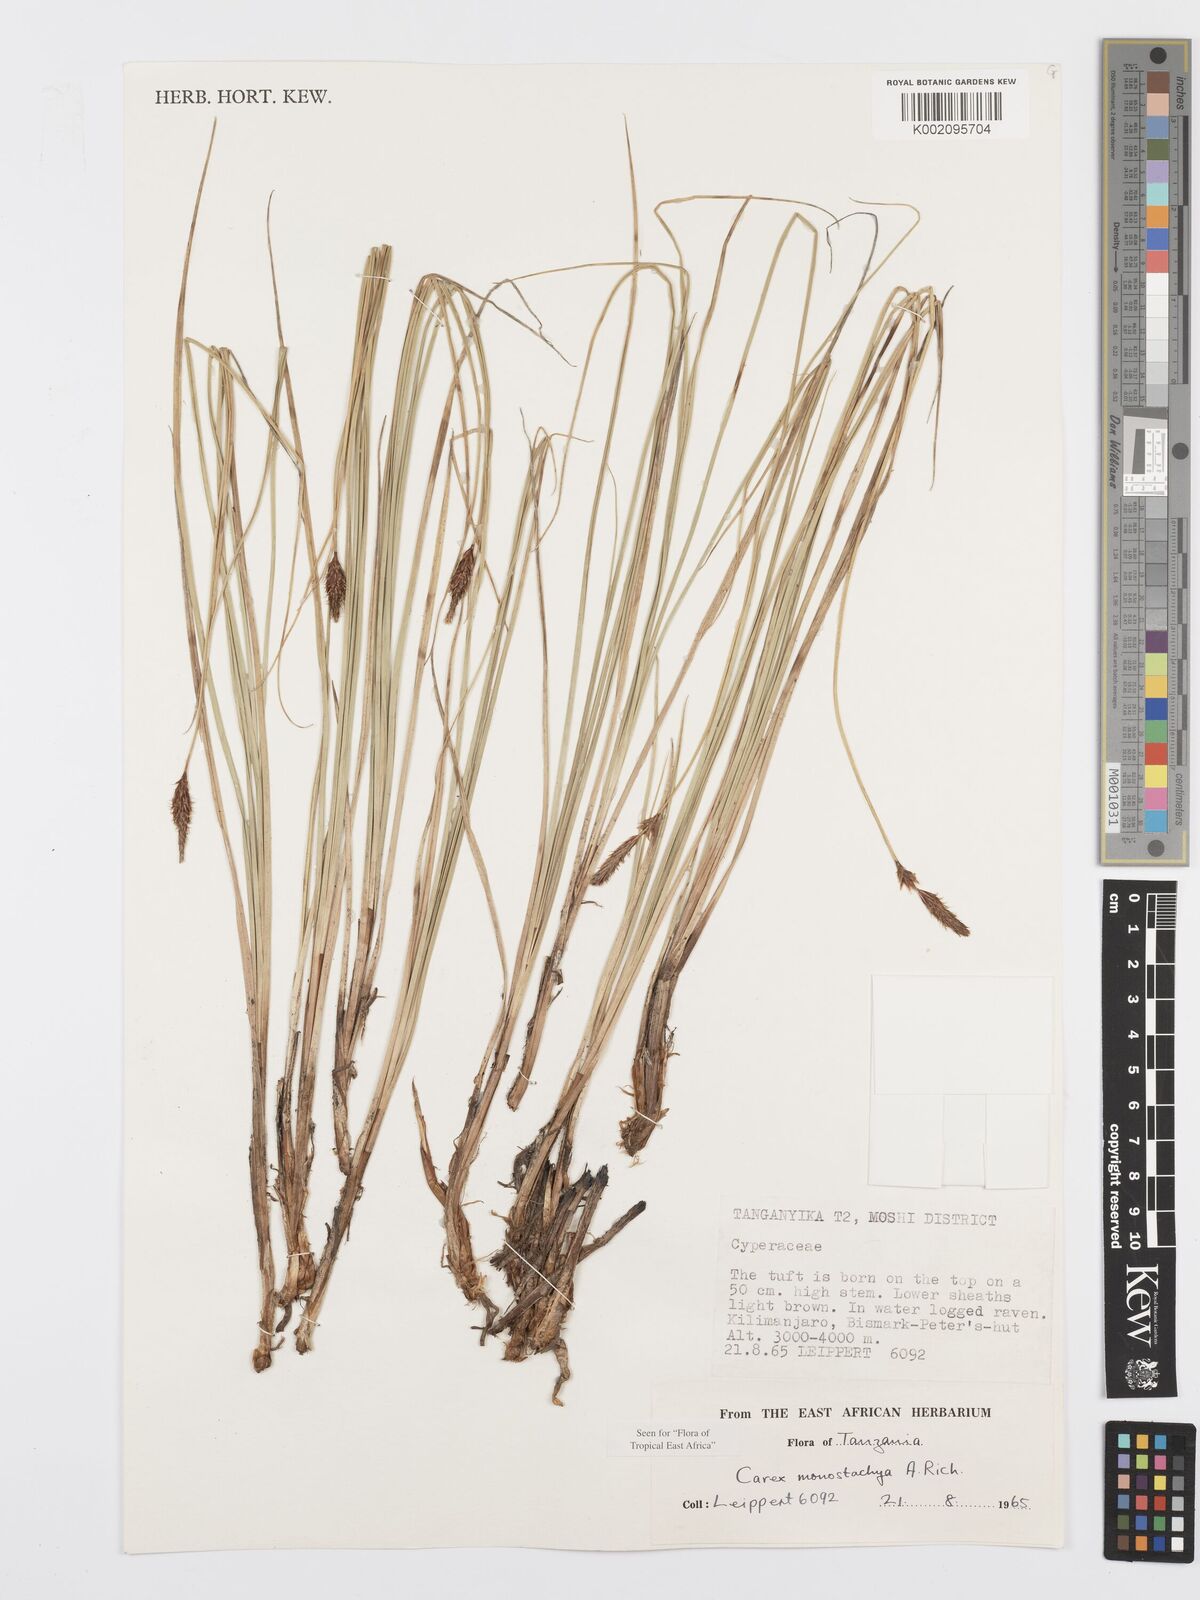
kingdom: Plantae
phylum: Tracheophyta
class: Liliopsida
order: Poales
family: Cyperaceae
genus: Carex
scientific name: Carex monostachya
